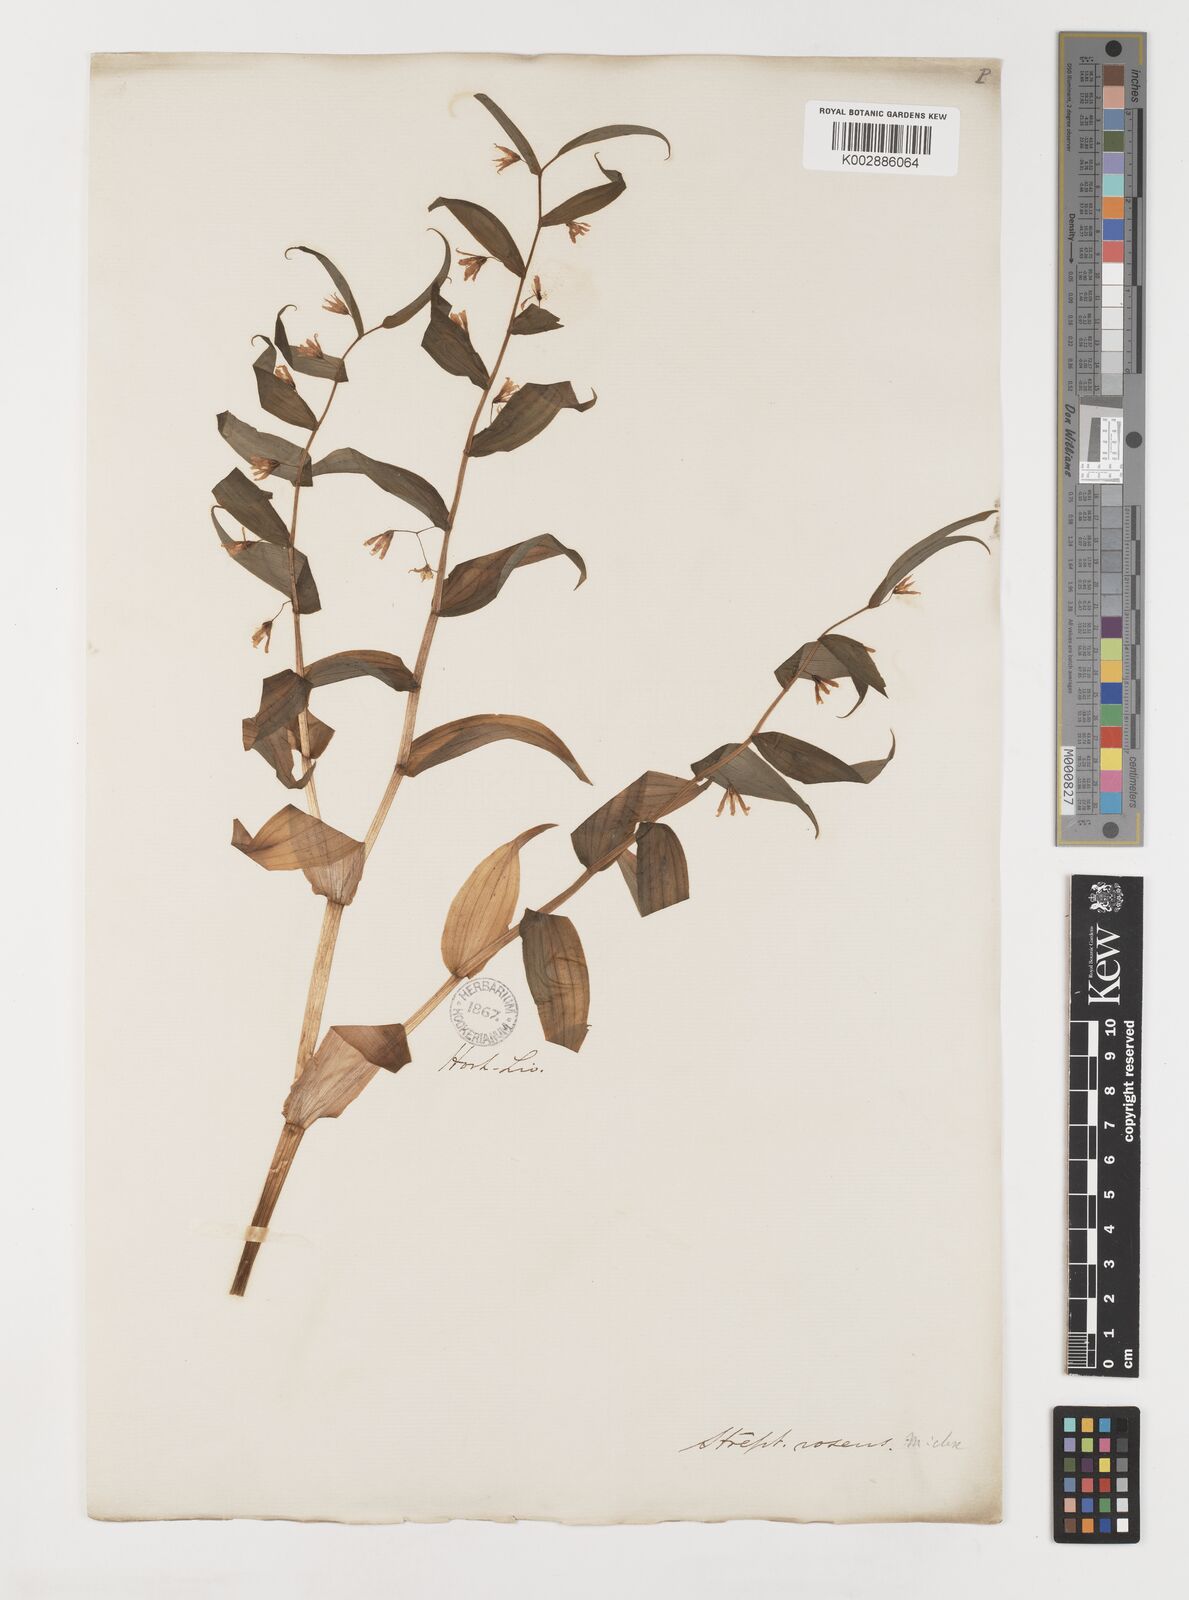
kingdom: Plantae
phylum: Tracheophyta
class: Liliopsida
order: Liliales
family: Liliaceae
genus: Streptopus
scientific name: Streptopus lanceolatus
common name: Rose mandarin
